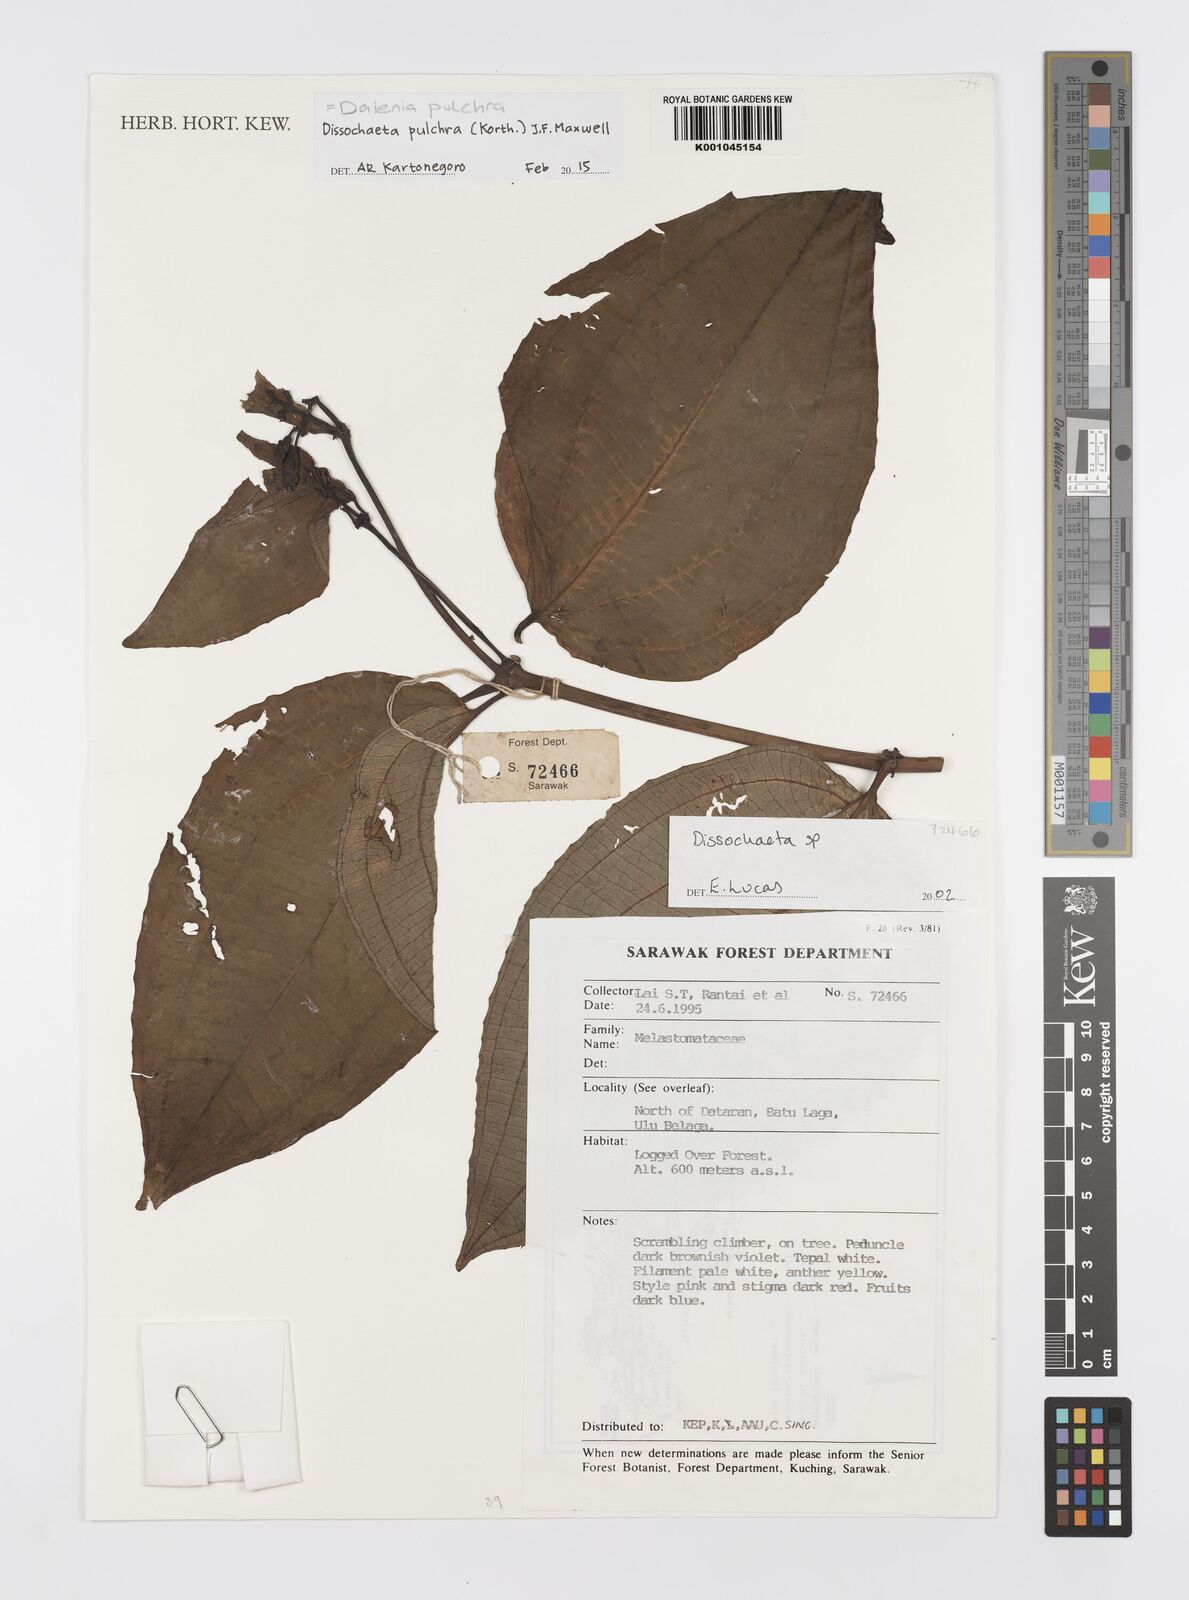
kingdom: Plantae
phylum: Tracheophyta
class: Magnoliopsida
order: Myrtales
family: Melastomataceae
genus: Dalenia
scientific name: Dalenia pulchra
